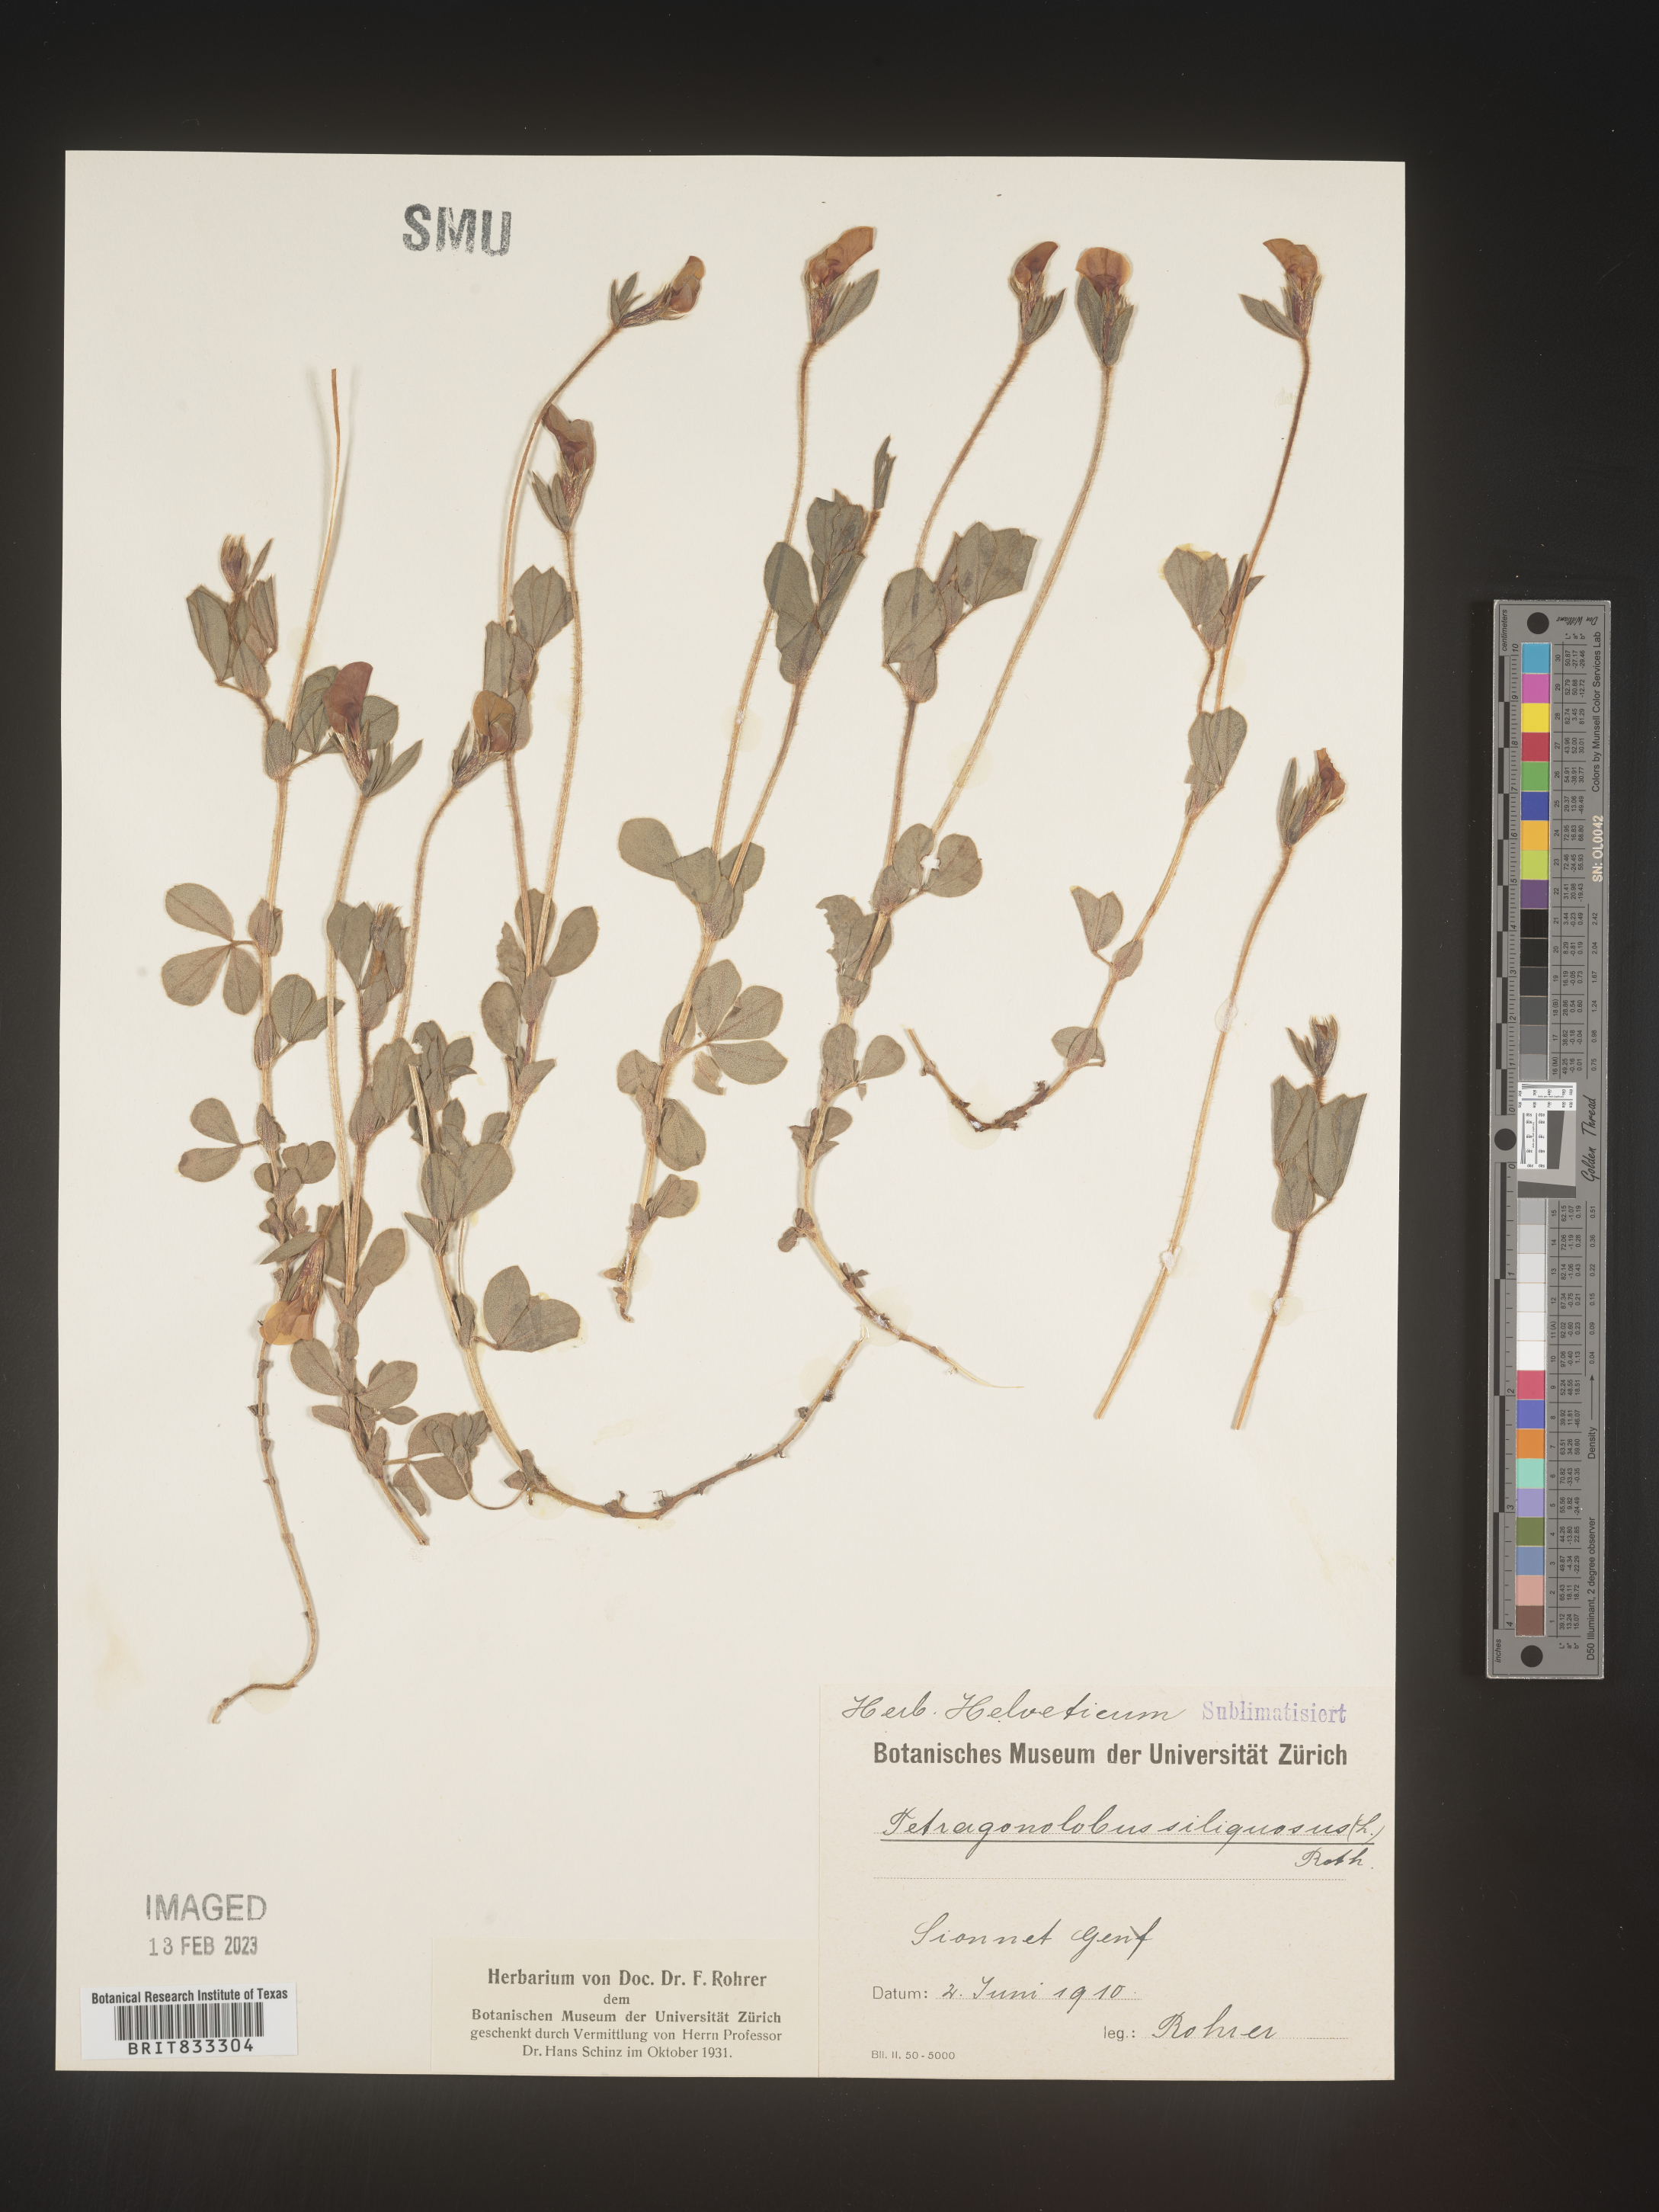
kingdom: Plantae
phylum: Tracheophyta
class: Magnoliopsida
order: Fabales
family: Fabaceae
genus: Lotus
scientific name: Lotus
